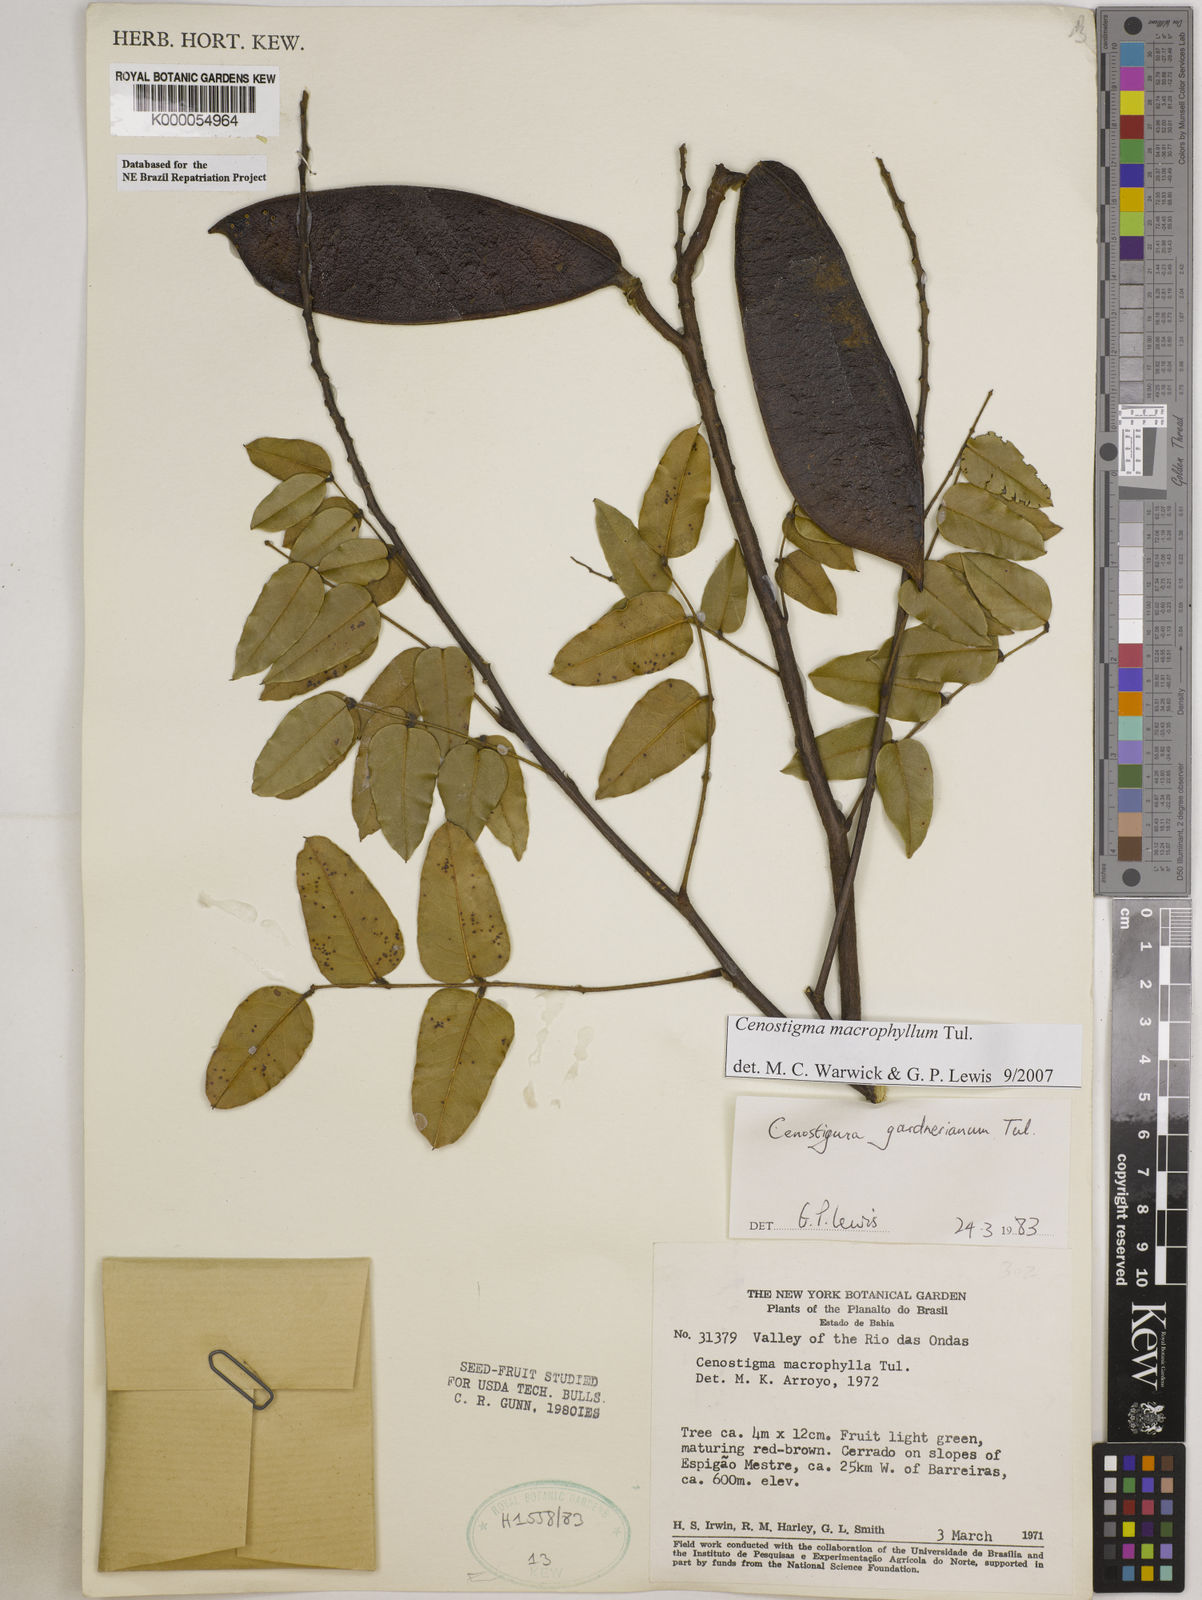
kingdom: Plantae
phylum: Tracheophyta
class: Magnoliopsida
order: Fabales
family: Fabaceae
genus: Cenostigma
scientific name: Cenostigma macrophyllum
